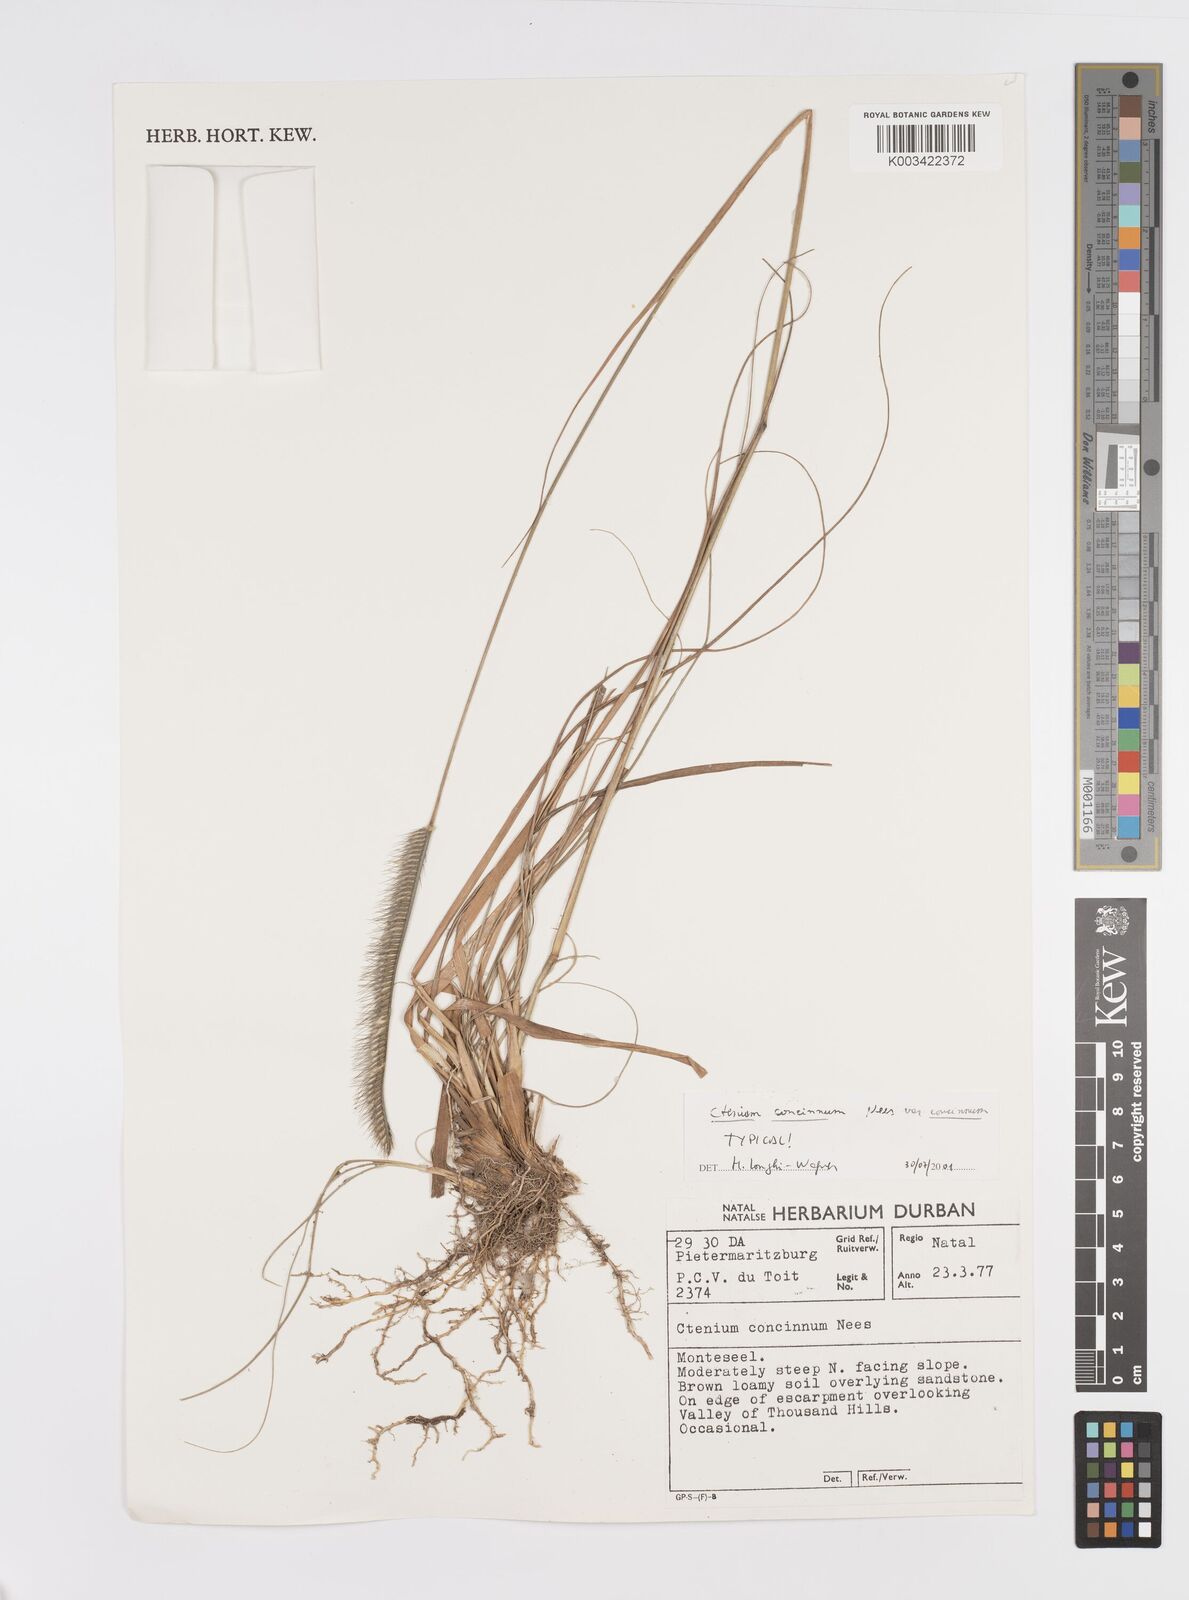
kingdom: Plantae
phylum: Tracheophyta
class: Liliopsida
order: Poales
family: Poaceae
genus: Ctenium
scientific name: Ctenium concinnum
